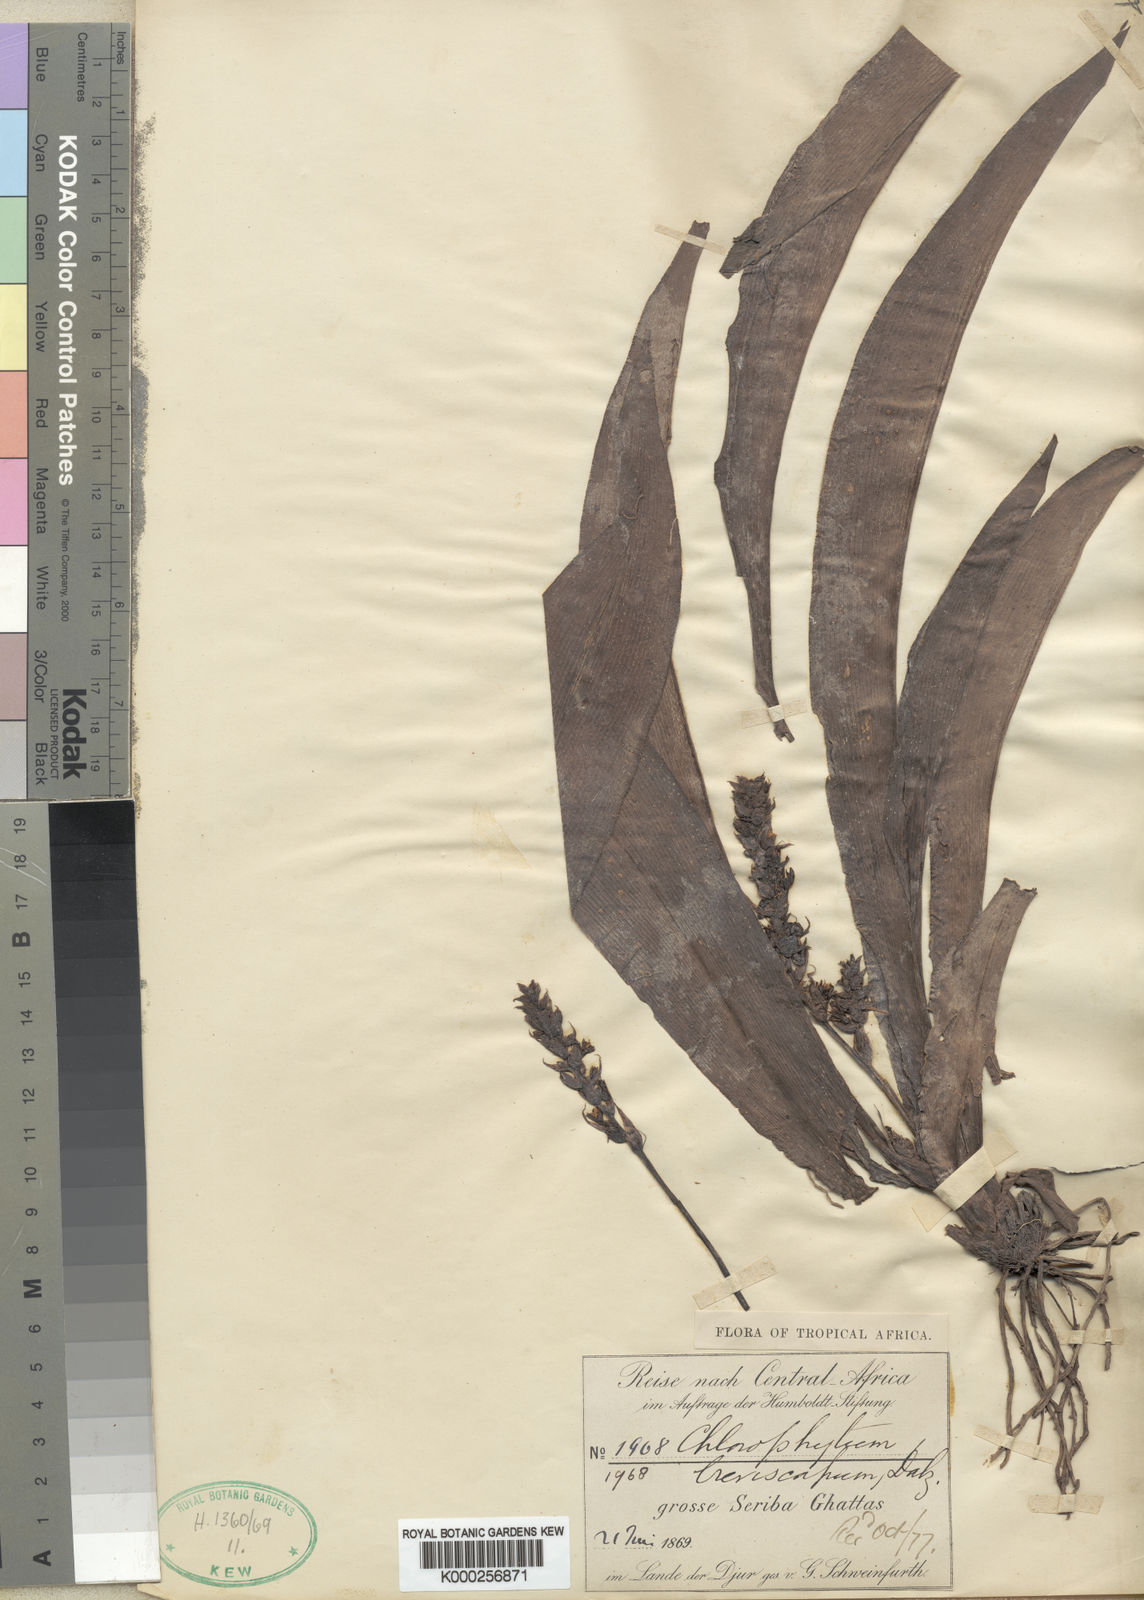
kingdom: Plantae
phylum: Tracheophyta
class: Liliopsida
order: Asparagales
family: Asparagaceae
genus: Chlorophytum
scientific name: Chlorophytum macrophyllum
